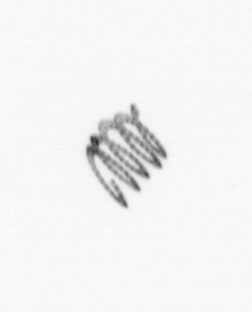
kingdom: Chromista
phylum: Ochrophyta
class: Bacillariophyceae
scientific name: Bacillariophyceae
